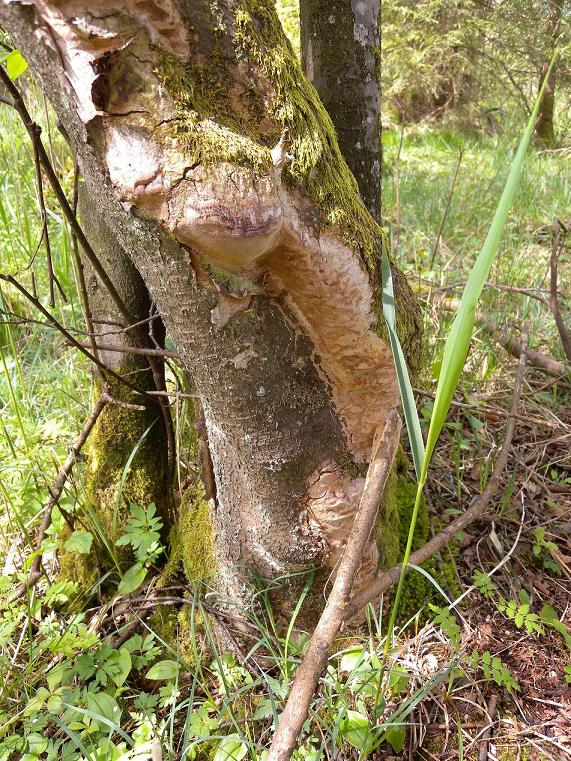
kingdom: Fungi
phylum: Basidiomycota
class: Agaricomycetes
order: Hymenochaetales
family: Hymenochaetaceae
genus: Fuscoporia
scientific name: Fuscoporia ferrea
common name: skorpe-ildporesvamp
